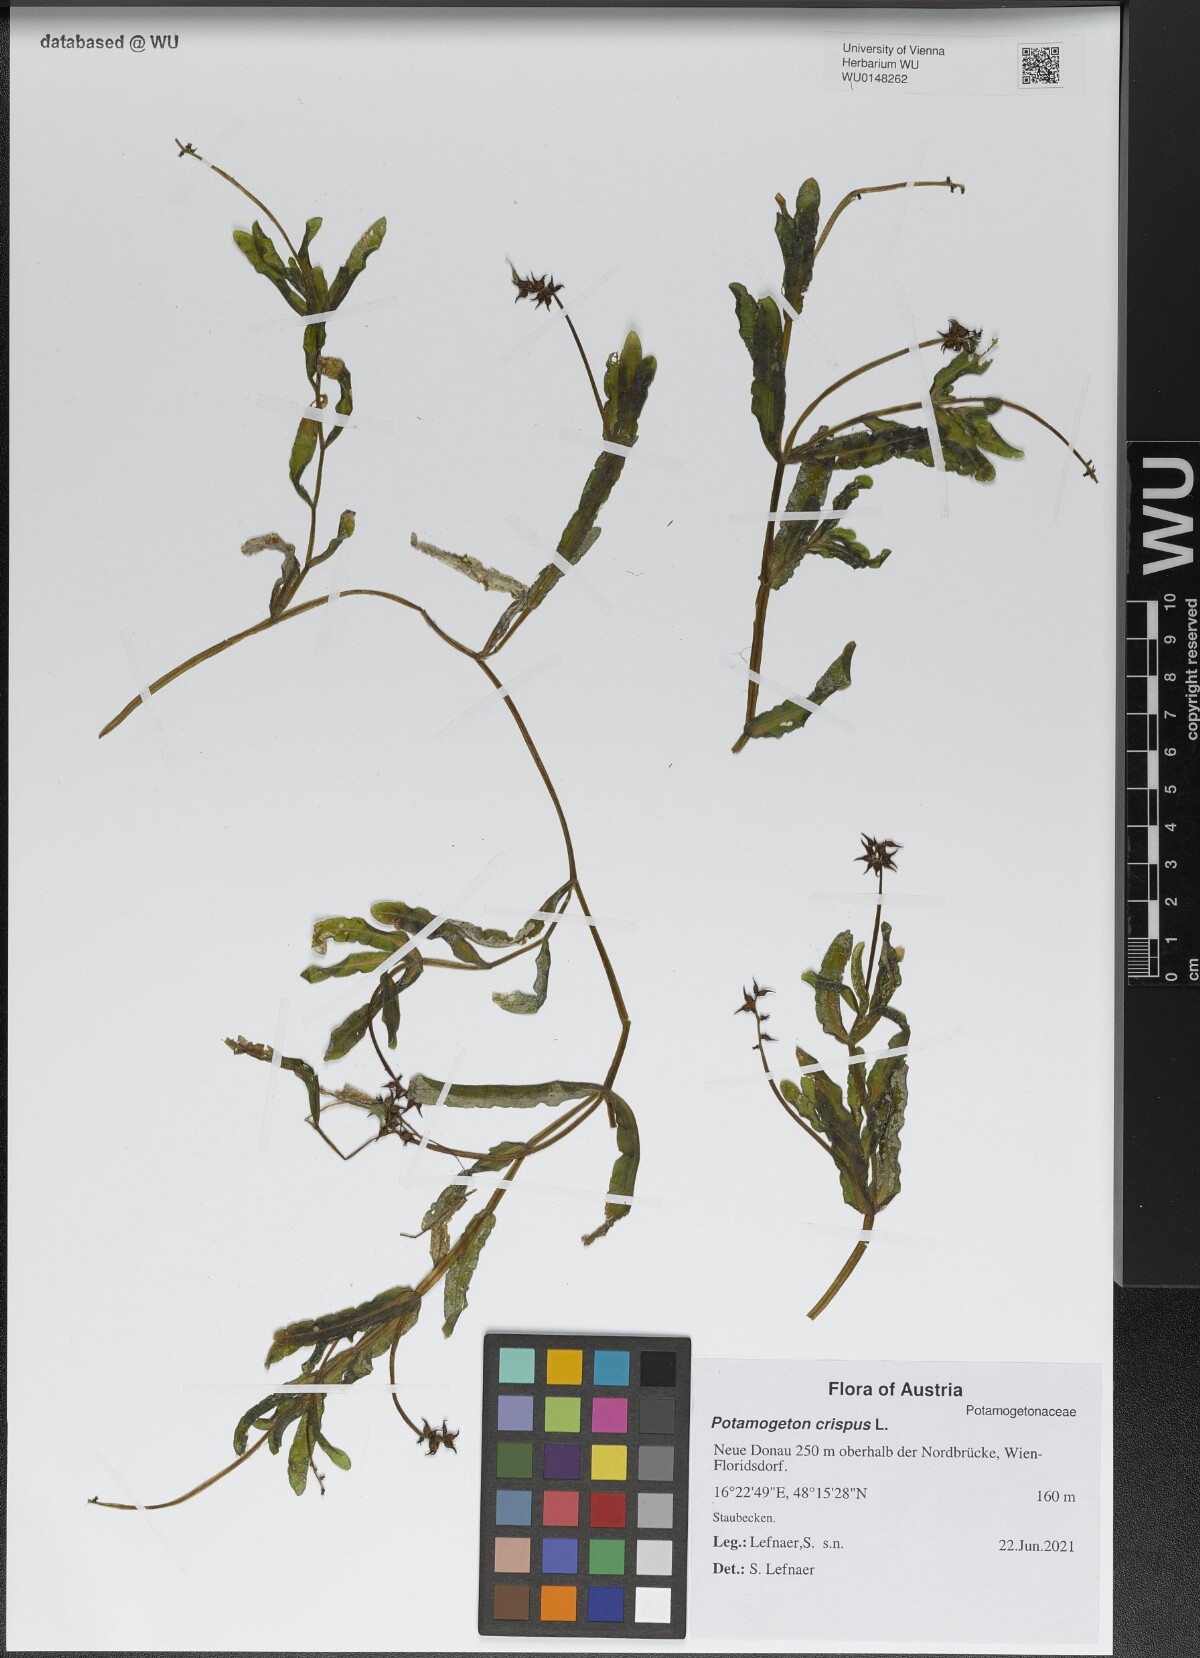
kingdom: Plantae
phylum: Tracheophyta
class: Liliopsida
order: Alismatales
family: Potamogetonaceae
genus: Potamogeton
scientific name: Potamogeton crispus
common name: Curled pondweed
